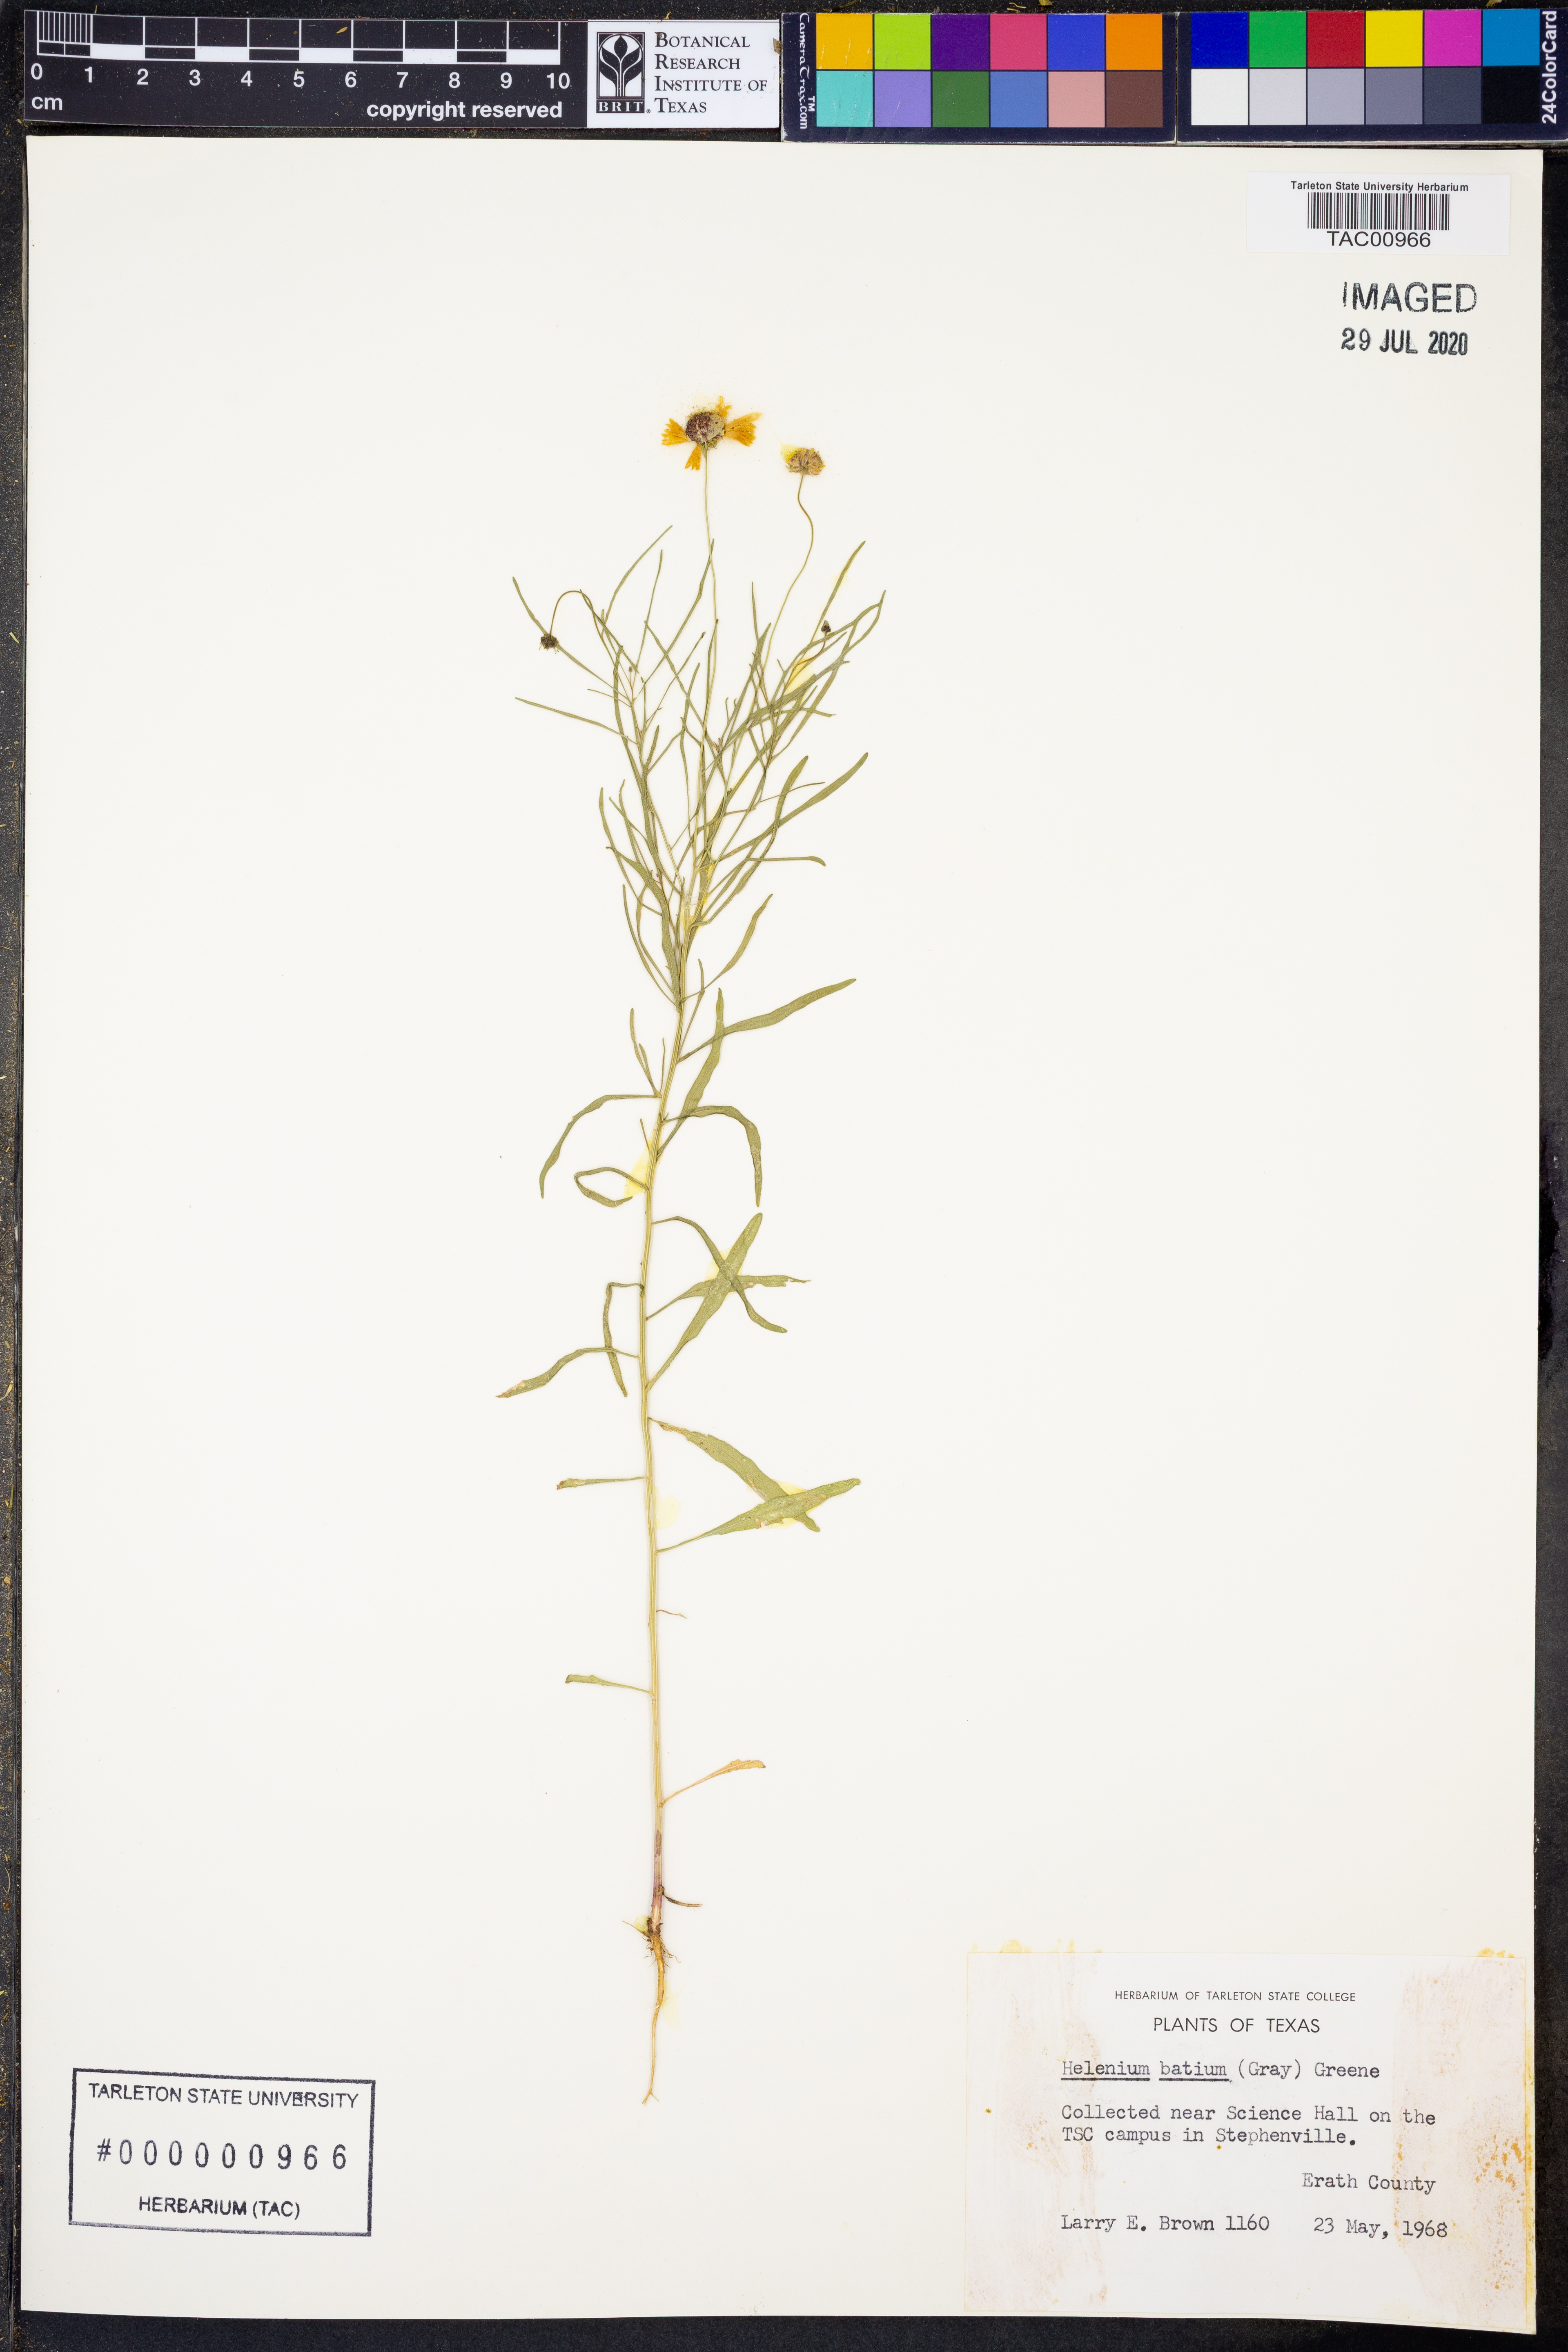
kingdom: Plantae
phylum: Tracheophyta
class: Magnoliopsida
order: Asterales
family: Asteraceae
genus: Helenium
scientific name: Helenium amarum
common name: Bitter sneezeweed
